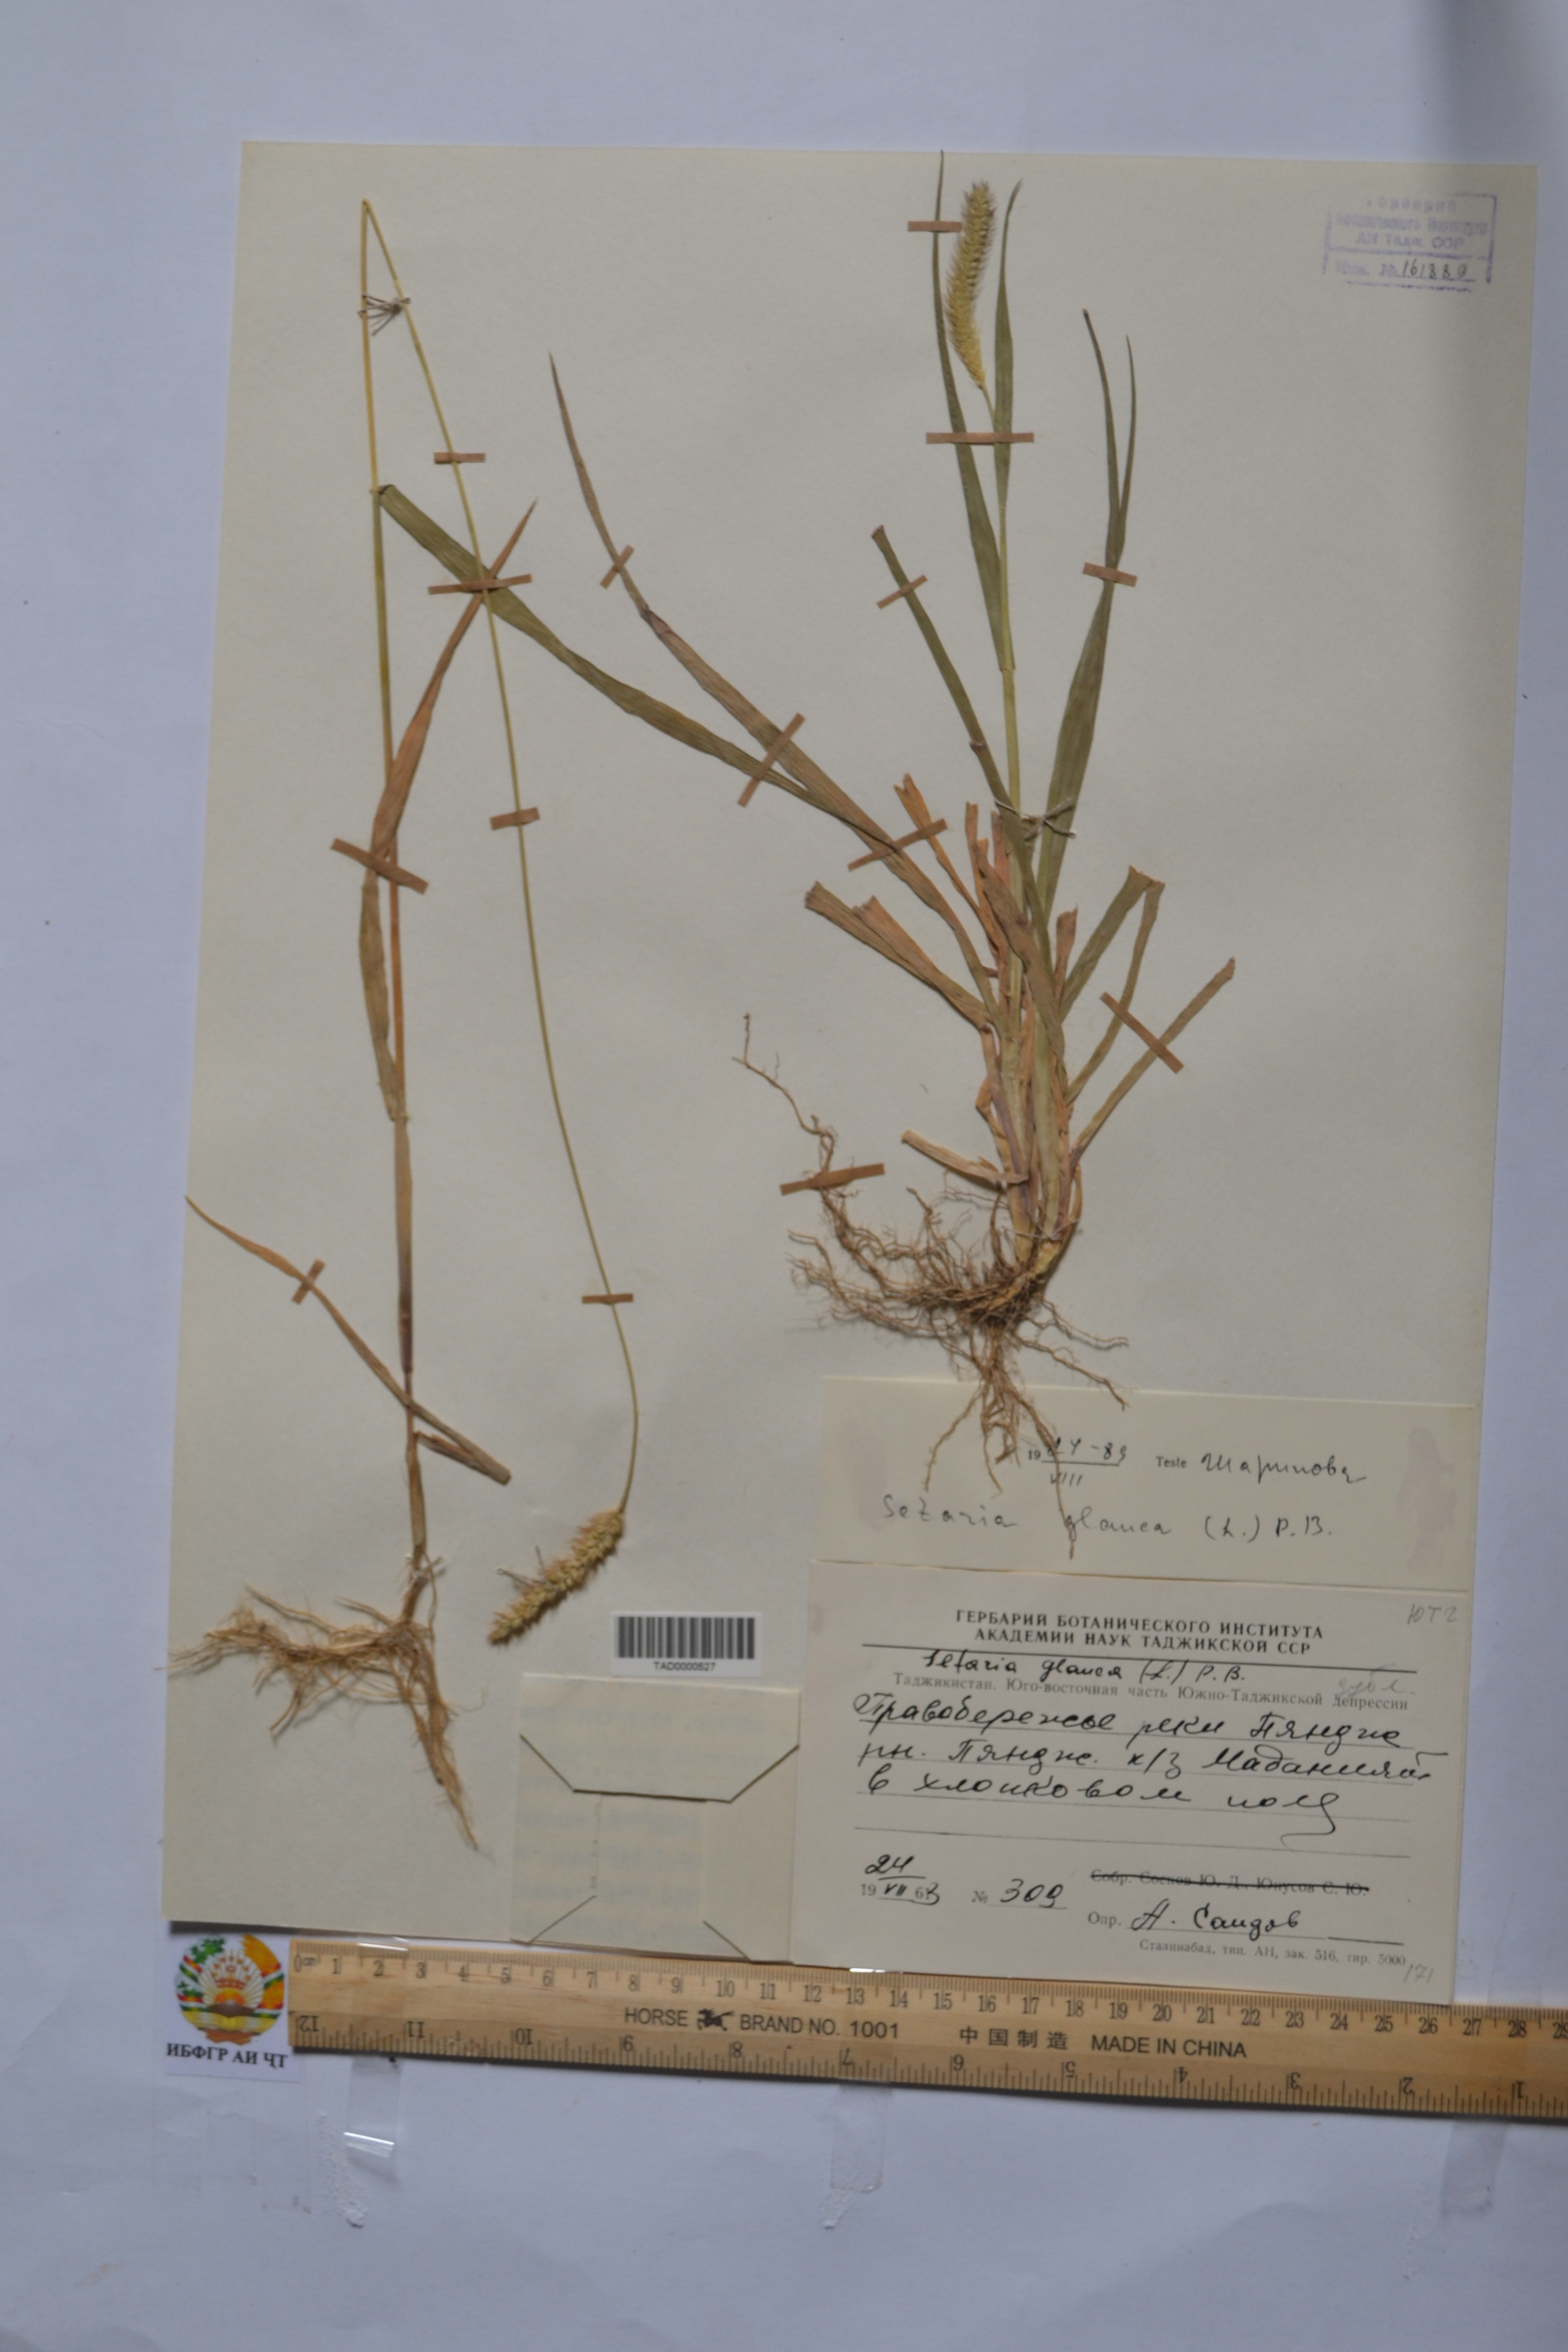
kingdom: Plantae
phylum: Tracheophyta
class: Liliopsida
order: Poales
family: Poaceae
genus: Cenchrus
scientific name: Cenchrus americanus
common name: Pearl millet
